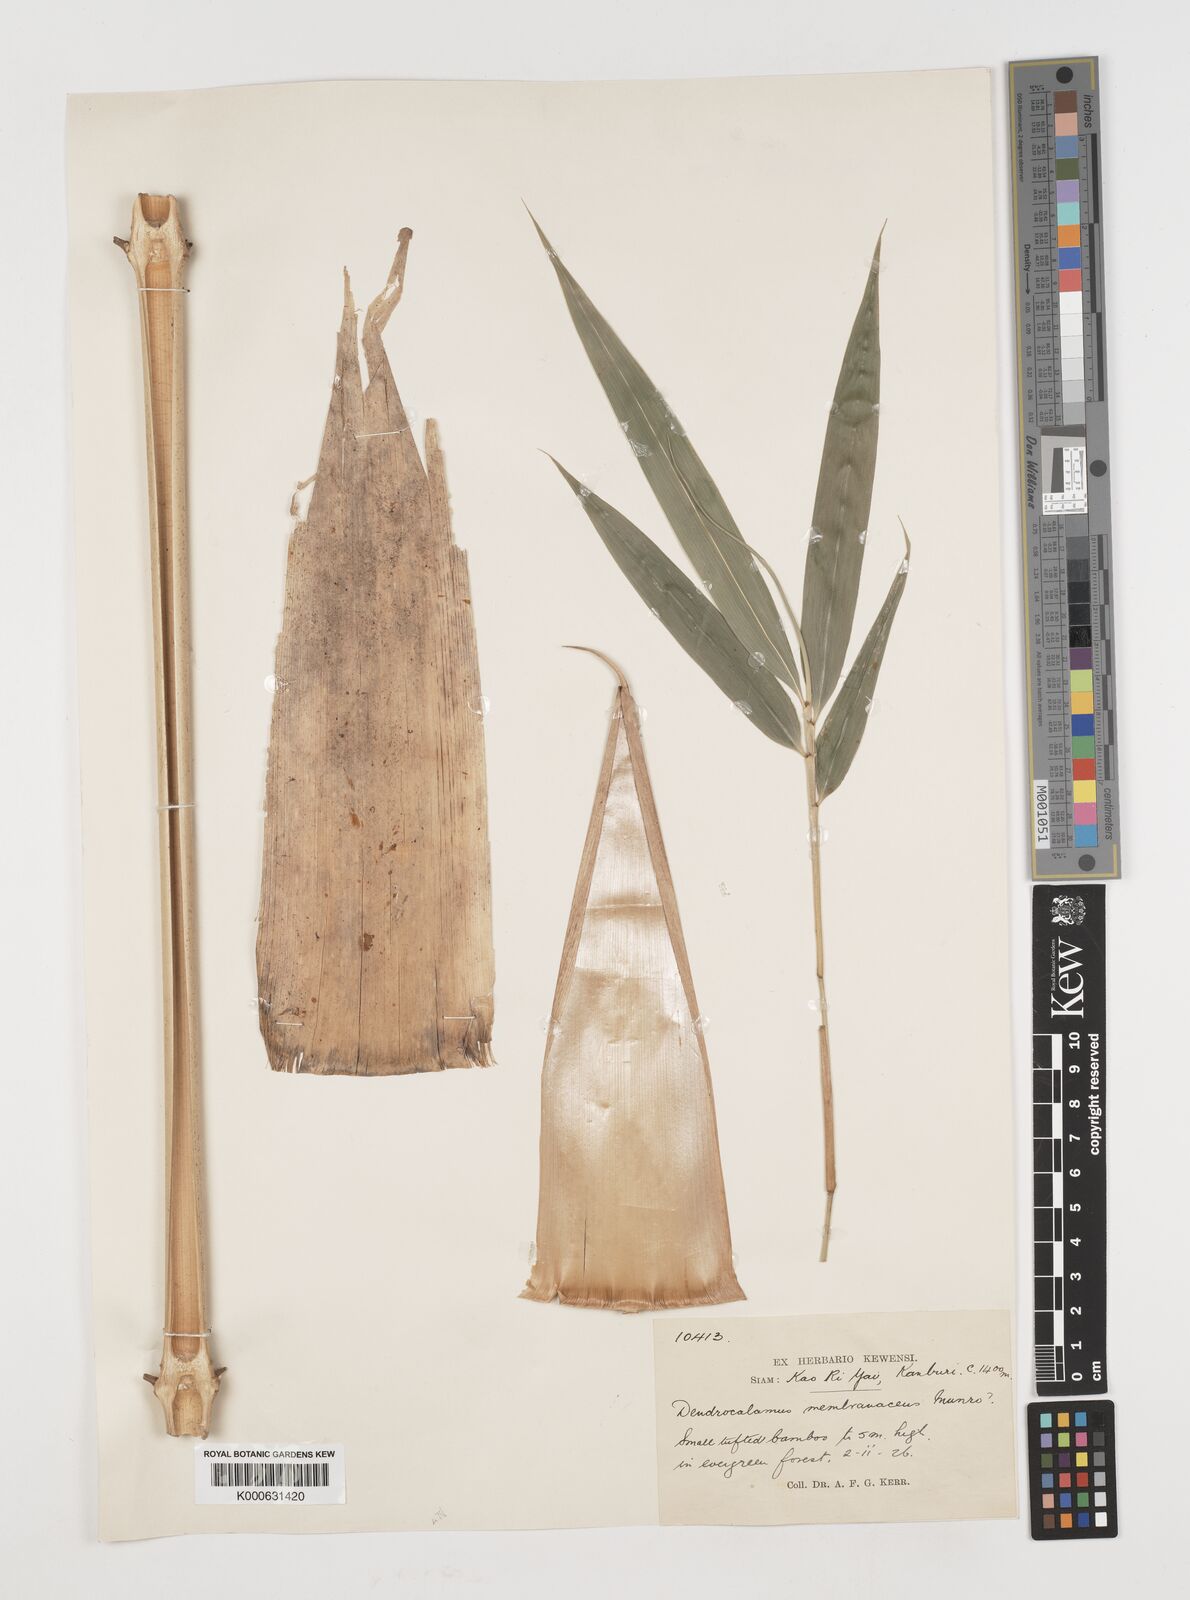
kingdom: Plantae
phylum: Tracheophyta
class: Liliopsida
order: Poales
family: Poaceae
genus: Chimonocalamus
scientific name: Chimonocalamus
